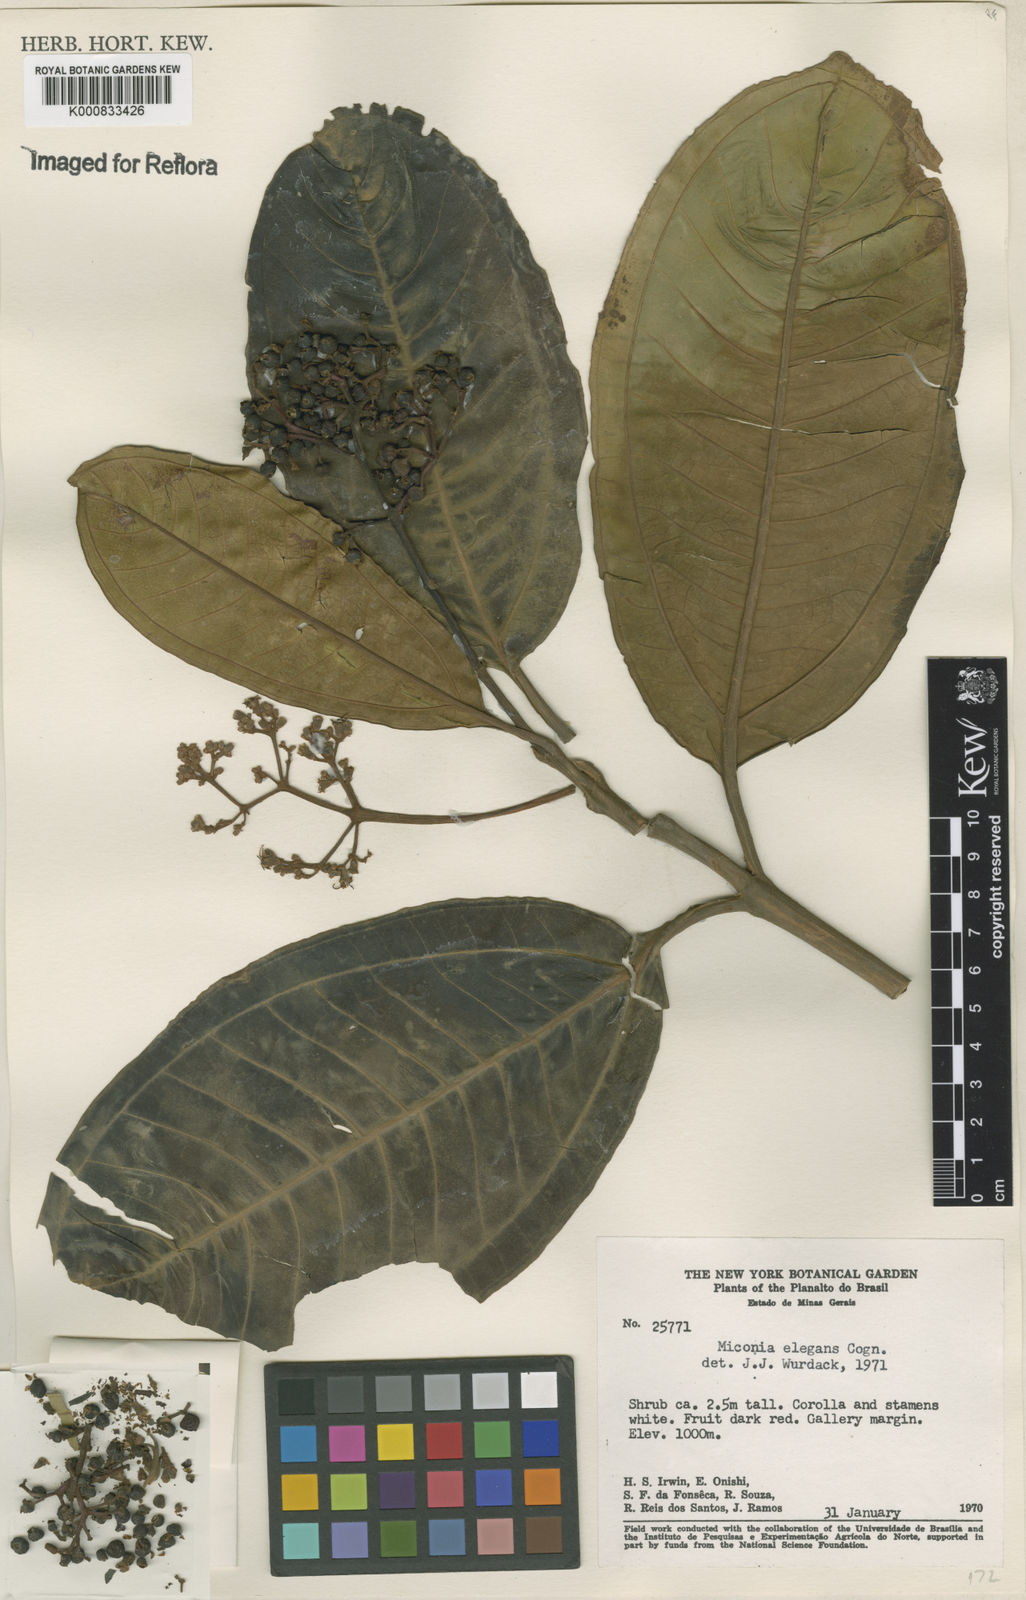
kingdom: Plantae
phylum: Tracheophyta
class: Magnoliopsida
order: Myrtales
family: Melastomataceae
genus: Miconia
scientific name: Miconia elegans
